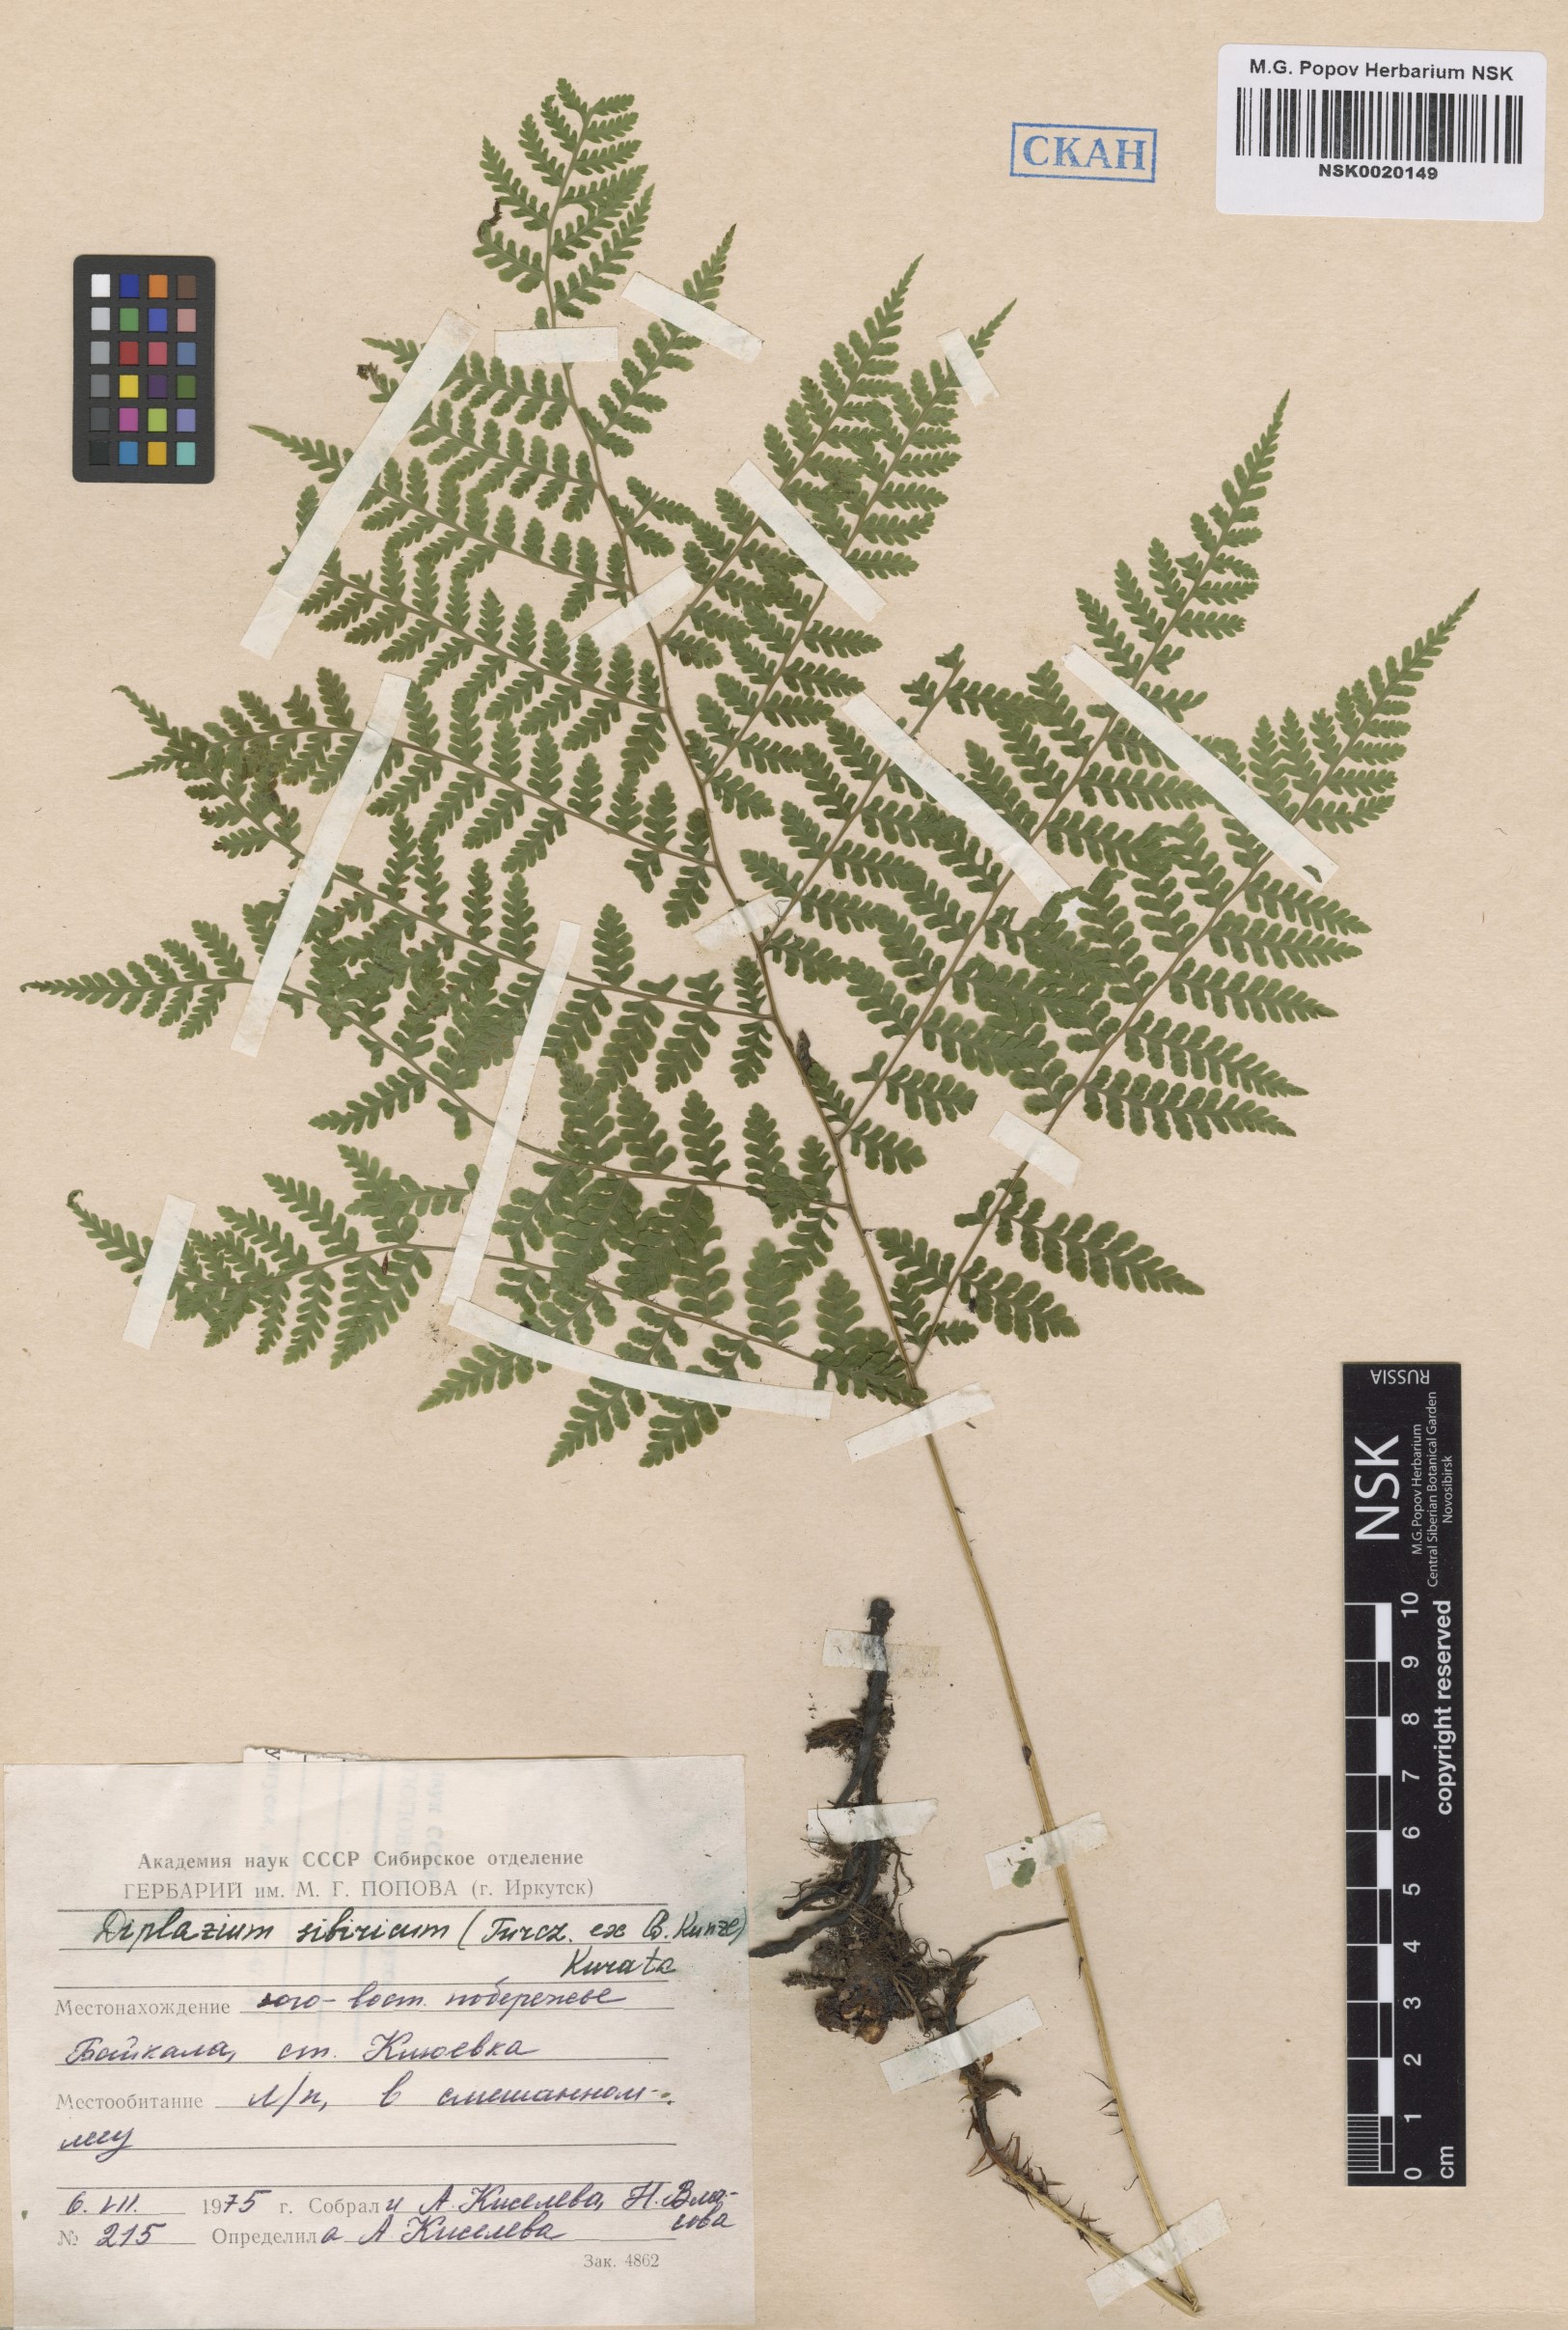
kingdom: Plantae
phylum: Tracheophyta
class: Polypodiopsida
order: Polypodiales
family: Athyriaceae
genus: Diplazium
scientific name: Diplazium sibiricum
